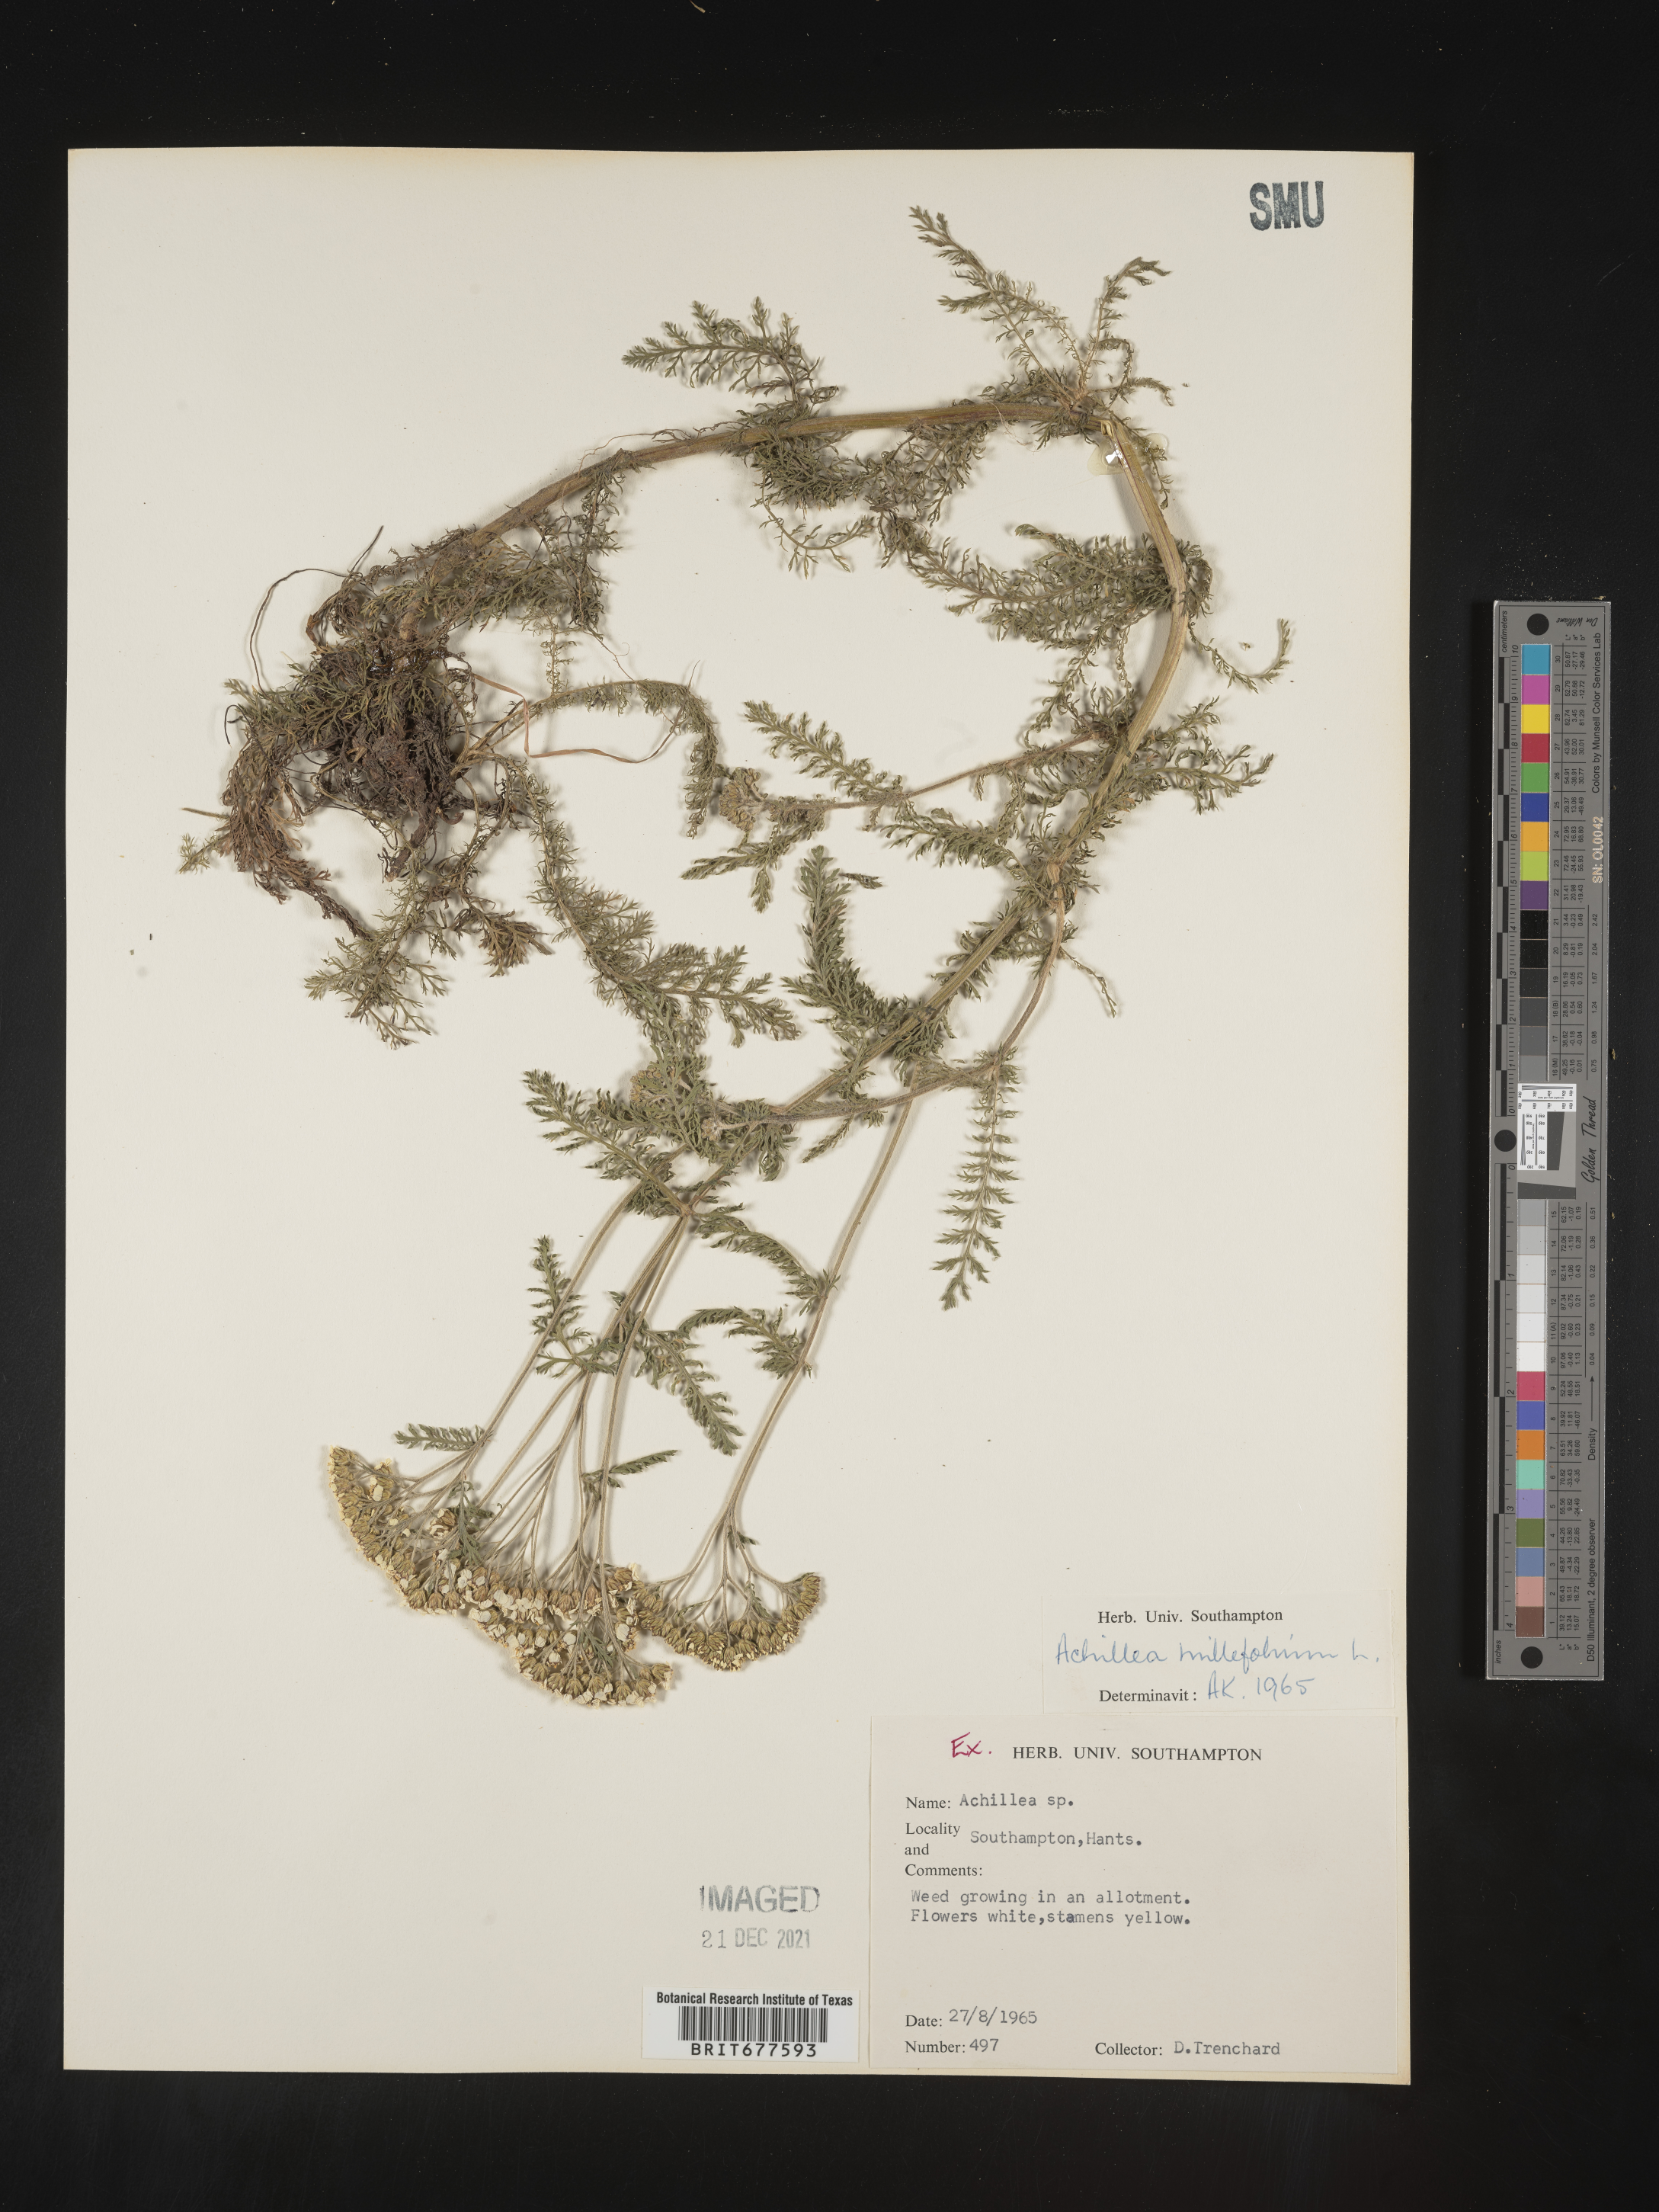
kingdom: Plantae
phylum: Tracheophyta
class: Magnoliopsida
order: Asterales
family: Asteraceae
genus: Achillea
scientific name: Achillea millefolium
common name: Yarrow
